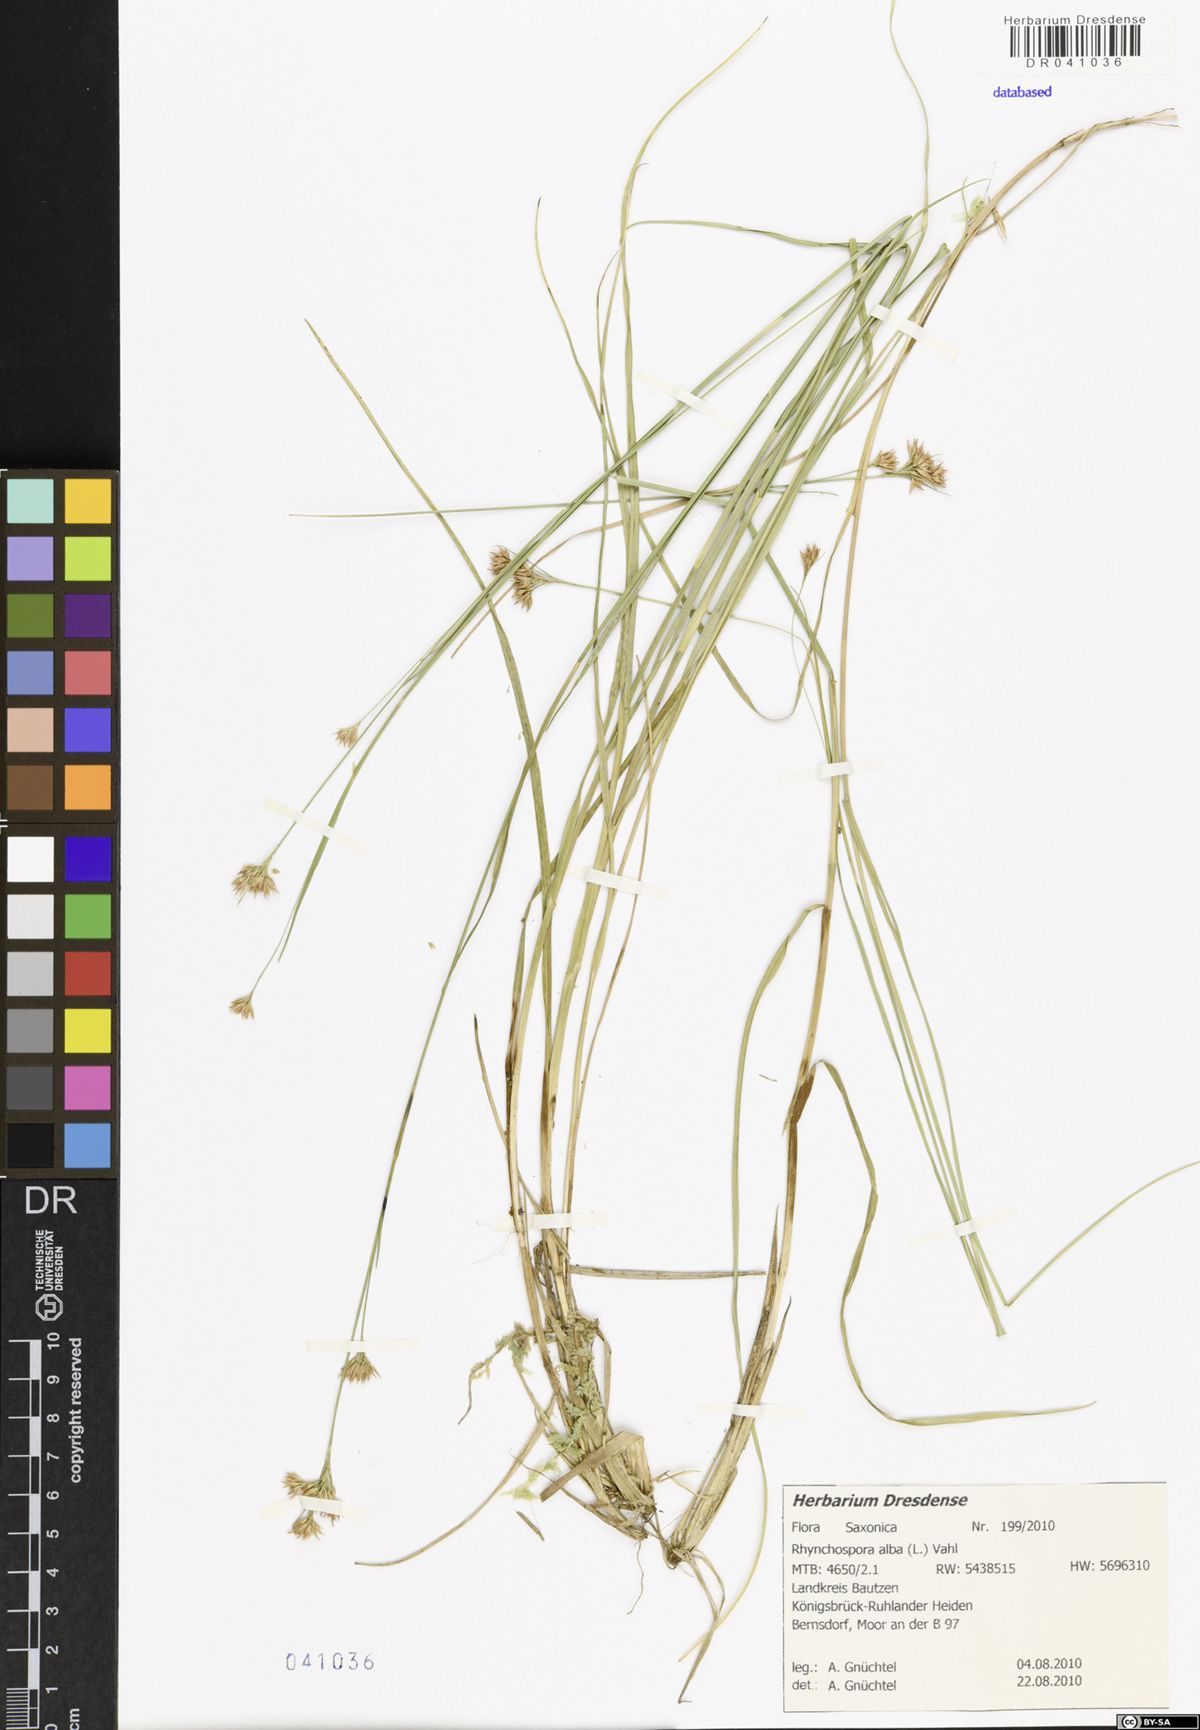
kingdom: Plantae
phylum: Tracheophyta
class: Liliopsida
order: Poales
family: Cyperaceae
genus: Rhynchospora
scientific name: Rhynchospora alba
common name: White beak-sedge
